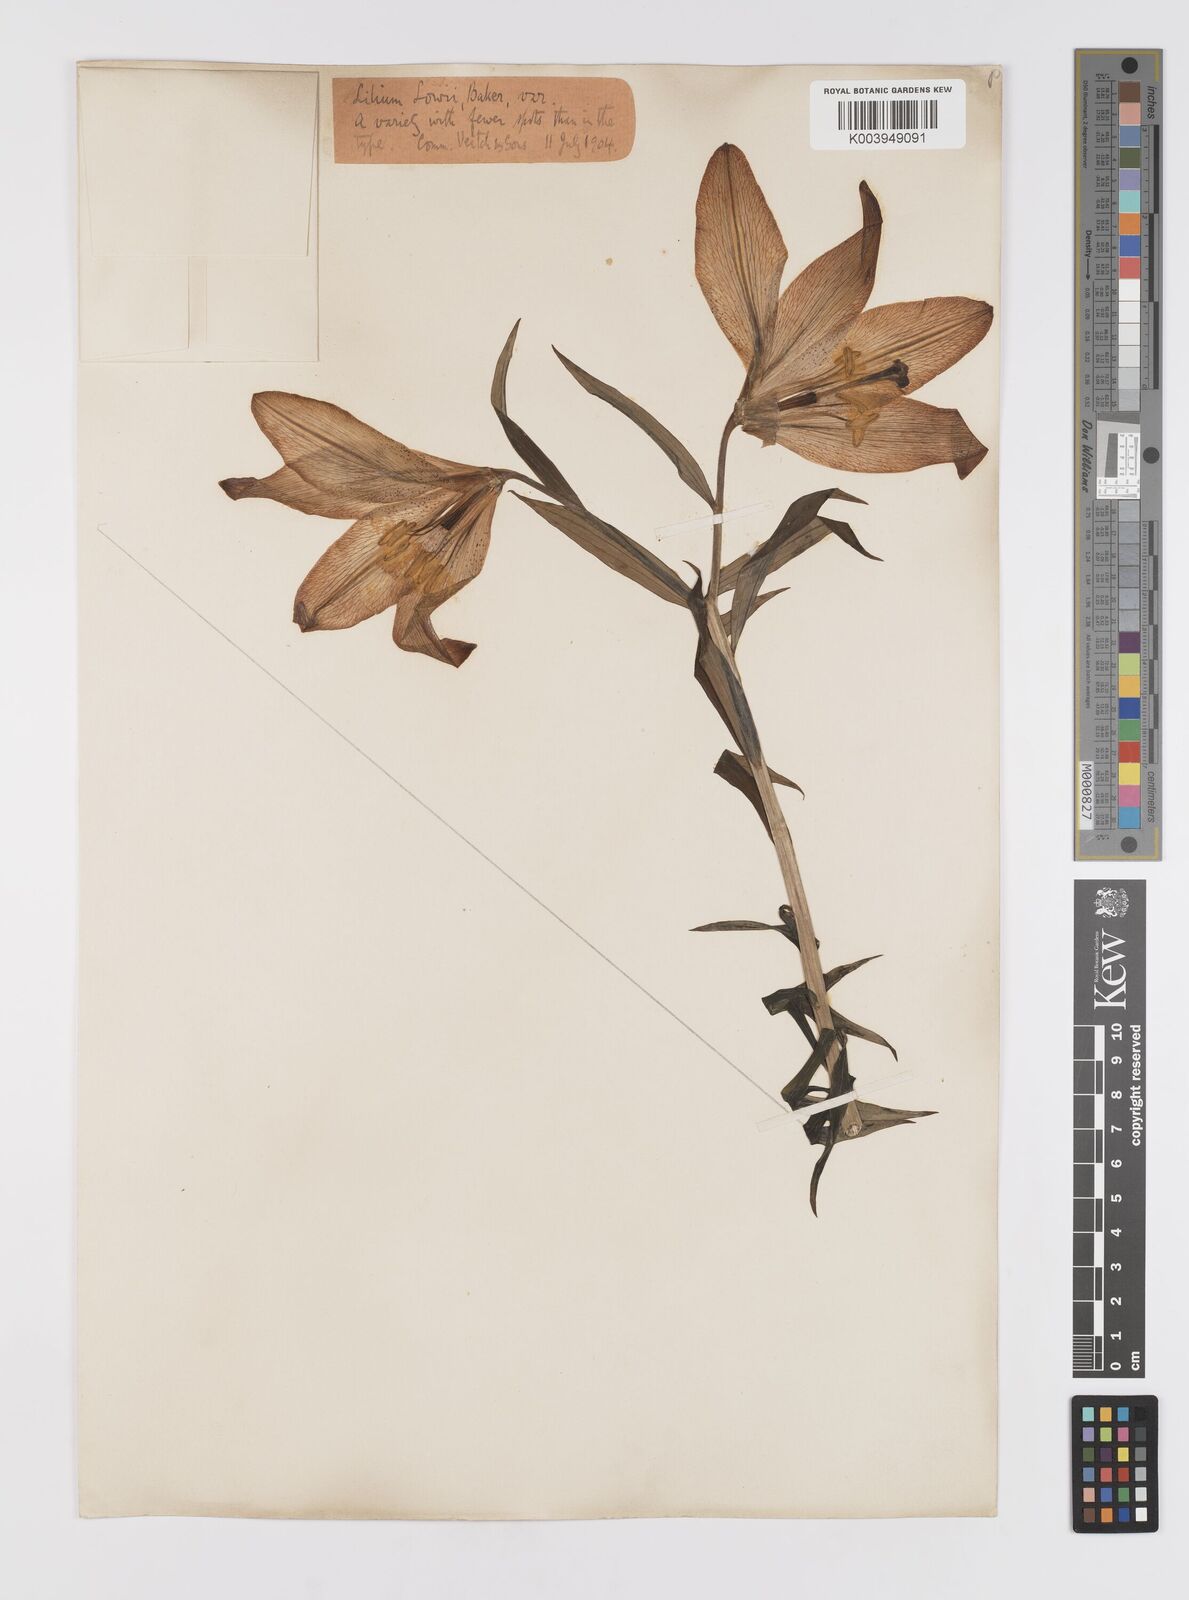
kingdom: Plantae
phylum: Tracheophyta
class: Liliopsida
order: Liliales
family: Liliaceae
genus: Lilium
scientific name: Lilium bakerianum
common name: Baker's lily
